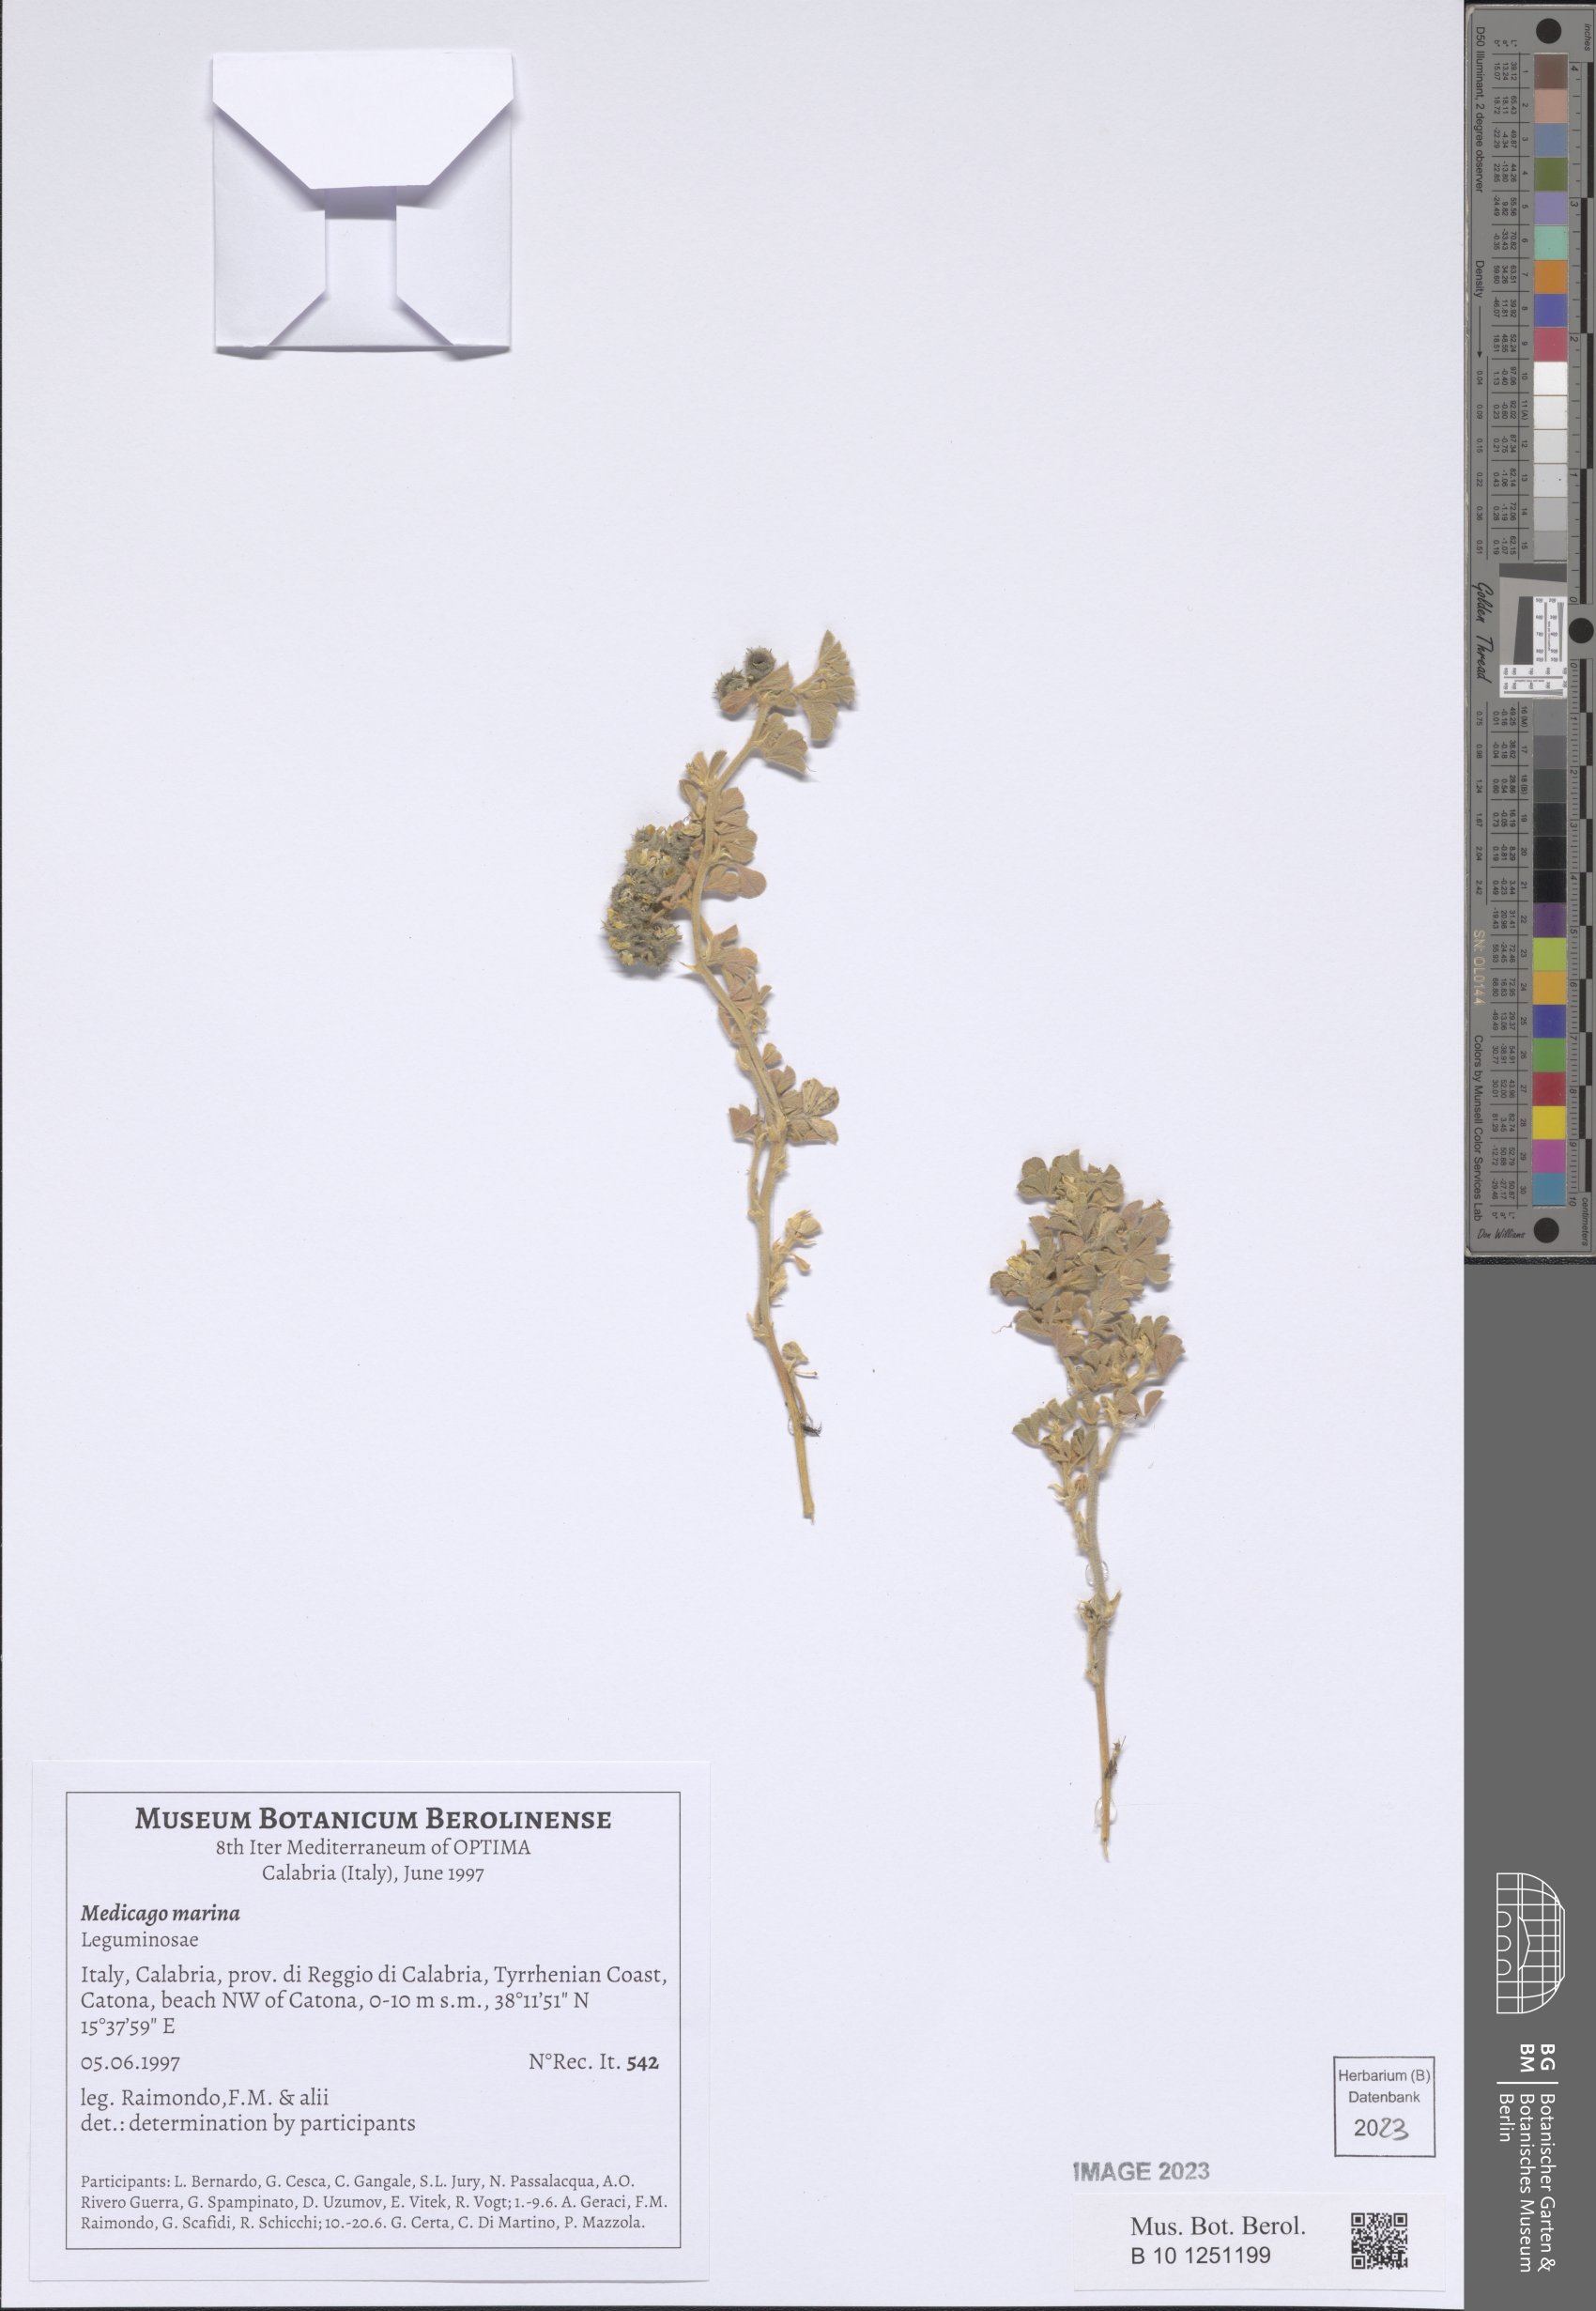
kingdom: Plantae
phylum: Tracheophyta
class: Magnoliopsida
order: Fabales
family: Fabaceae
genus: Medicago
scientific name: Medicago marina
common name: Sea medick
